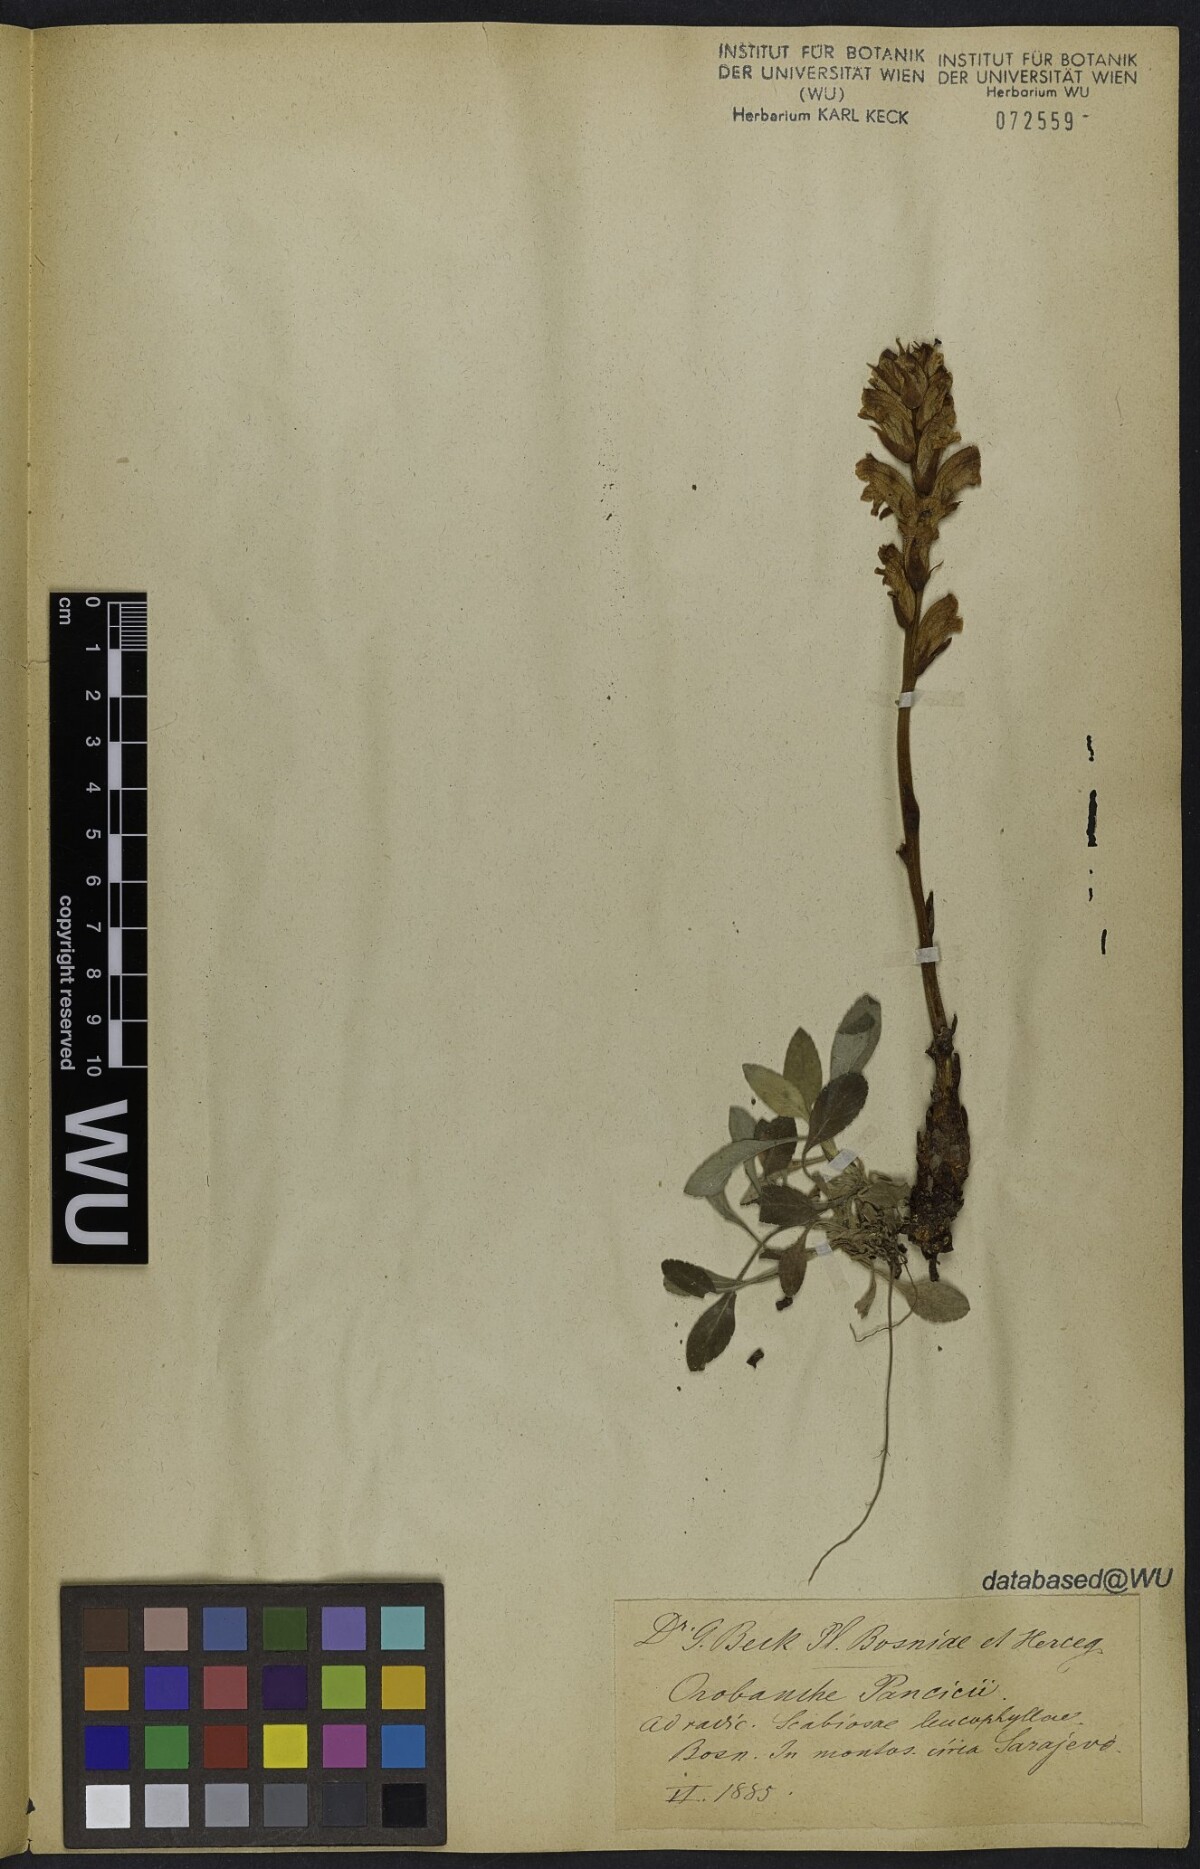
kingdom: Plantae
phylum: Tracheophyta
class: Magnoliopsida
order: Lamiales
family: Orobanchaceae
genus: Orobanche
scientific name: Orobanche pancicii
